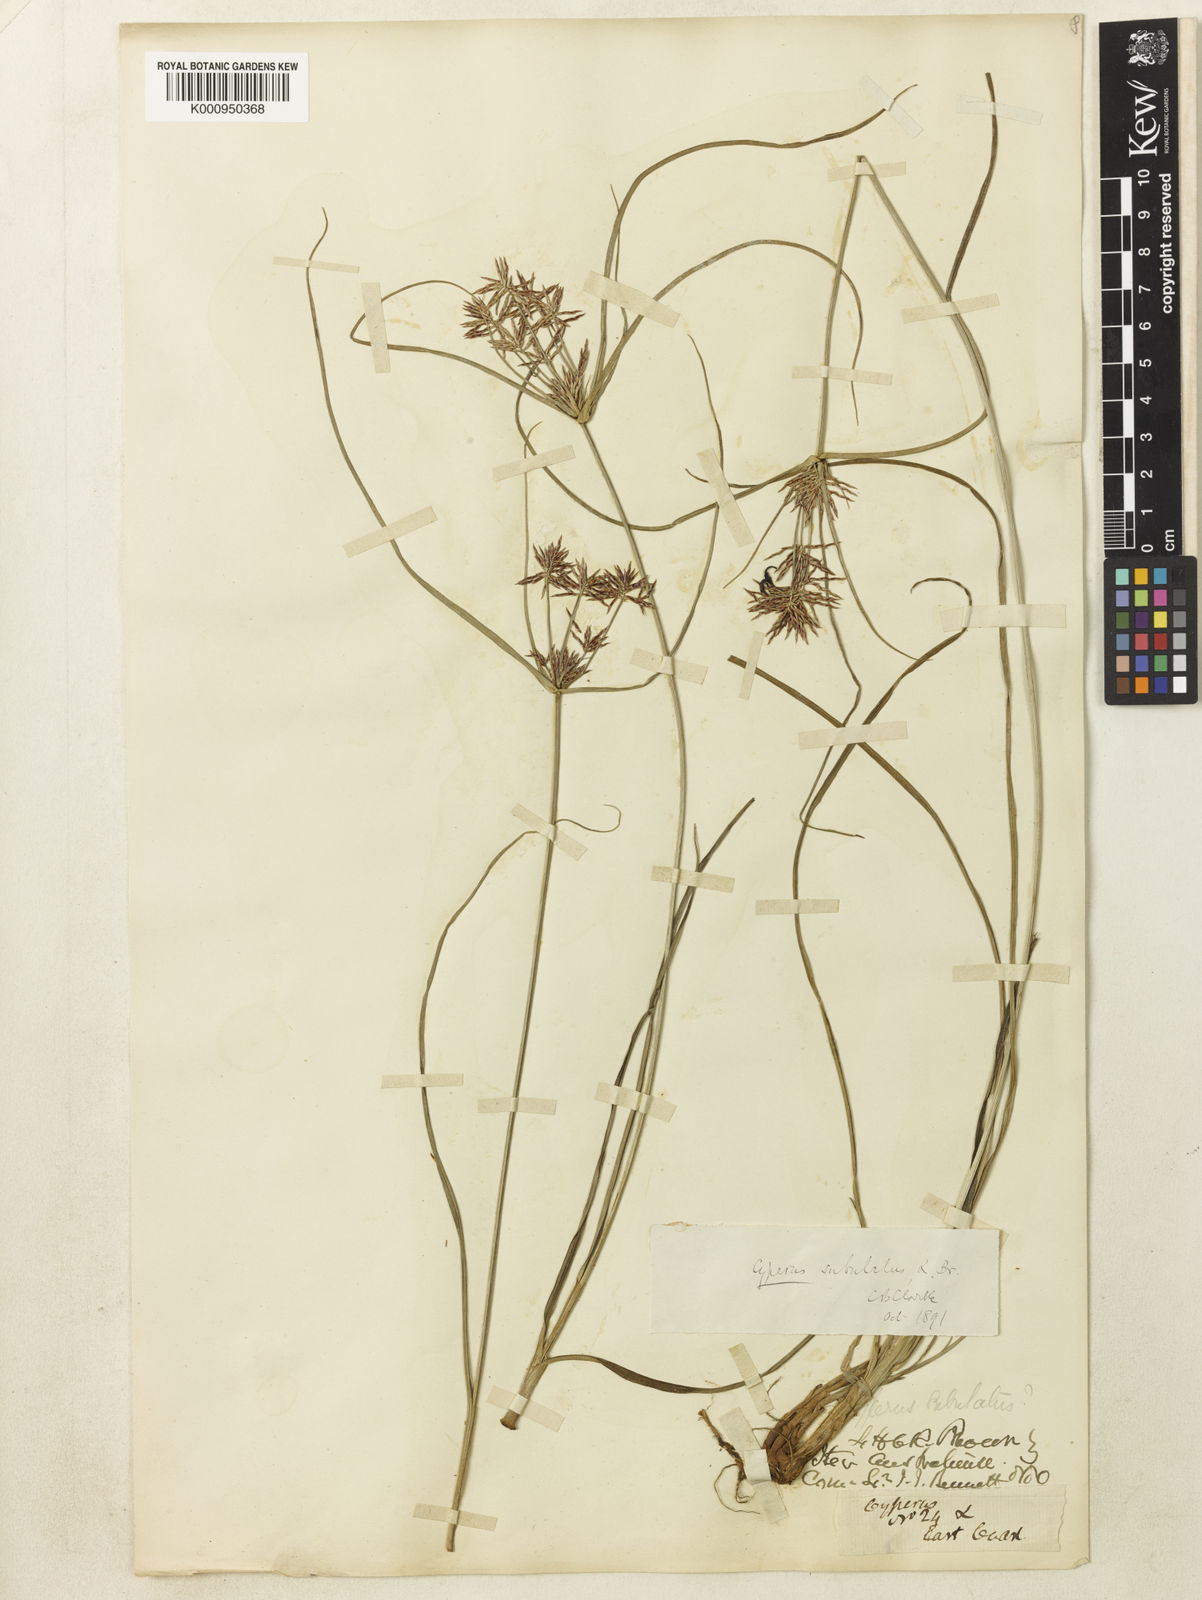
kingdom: Plantae
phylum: Tracheophyta
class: Liliopsida
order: Poales
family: Cyperaceae
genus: Cyperus
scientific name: Cyperus subulatus
